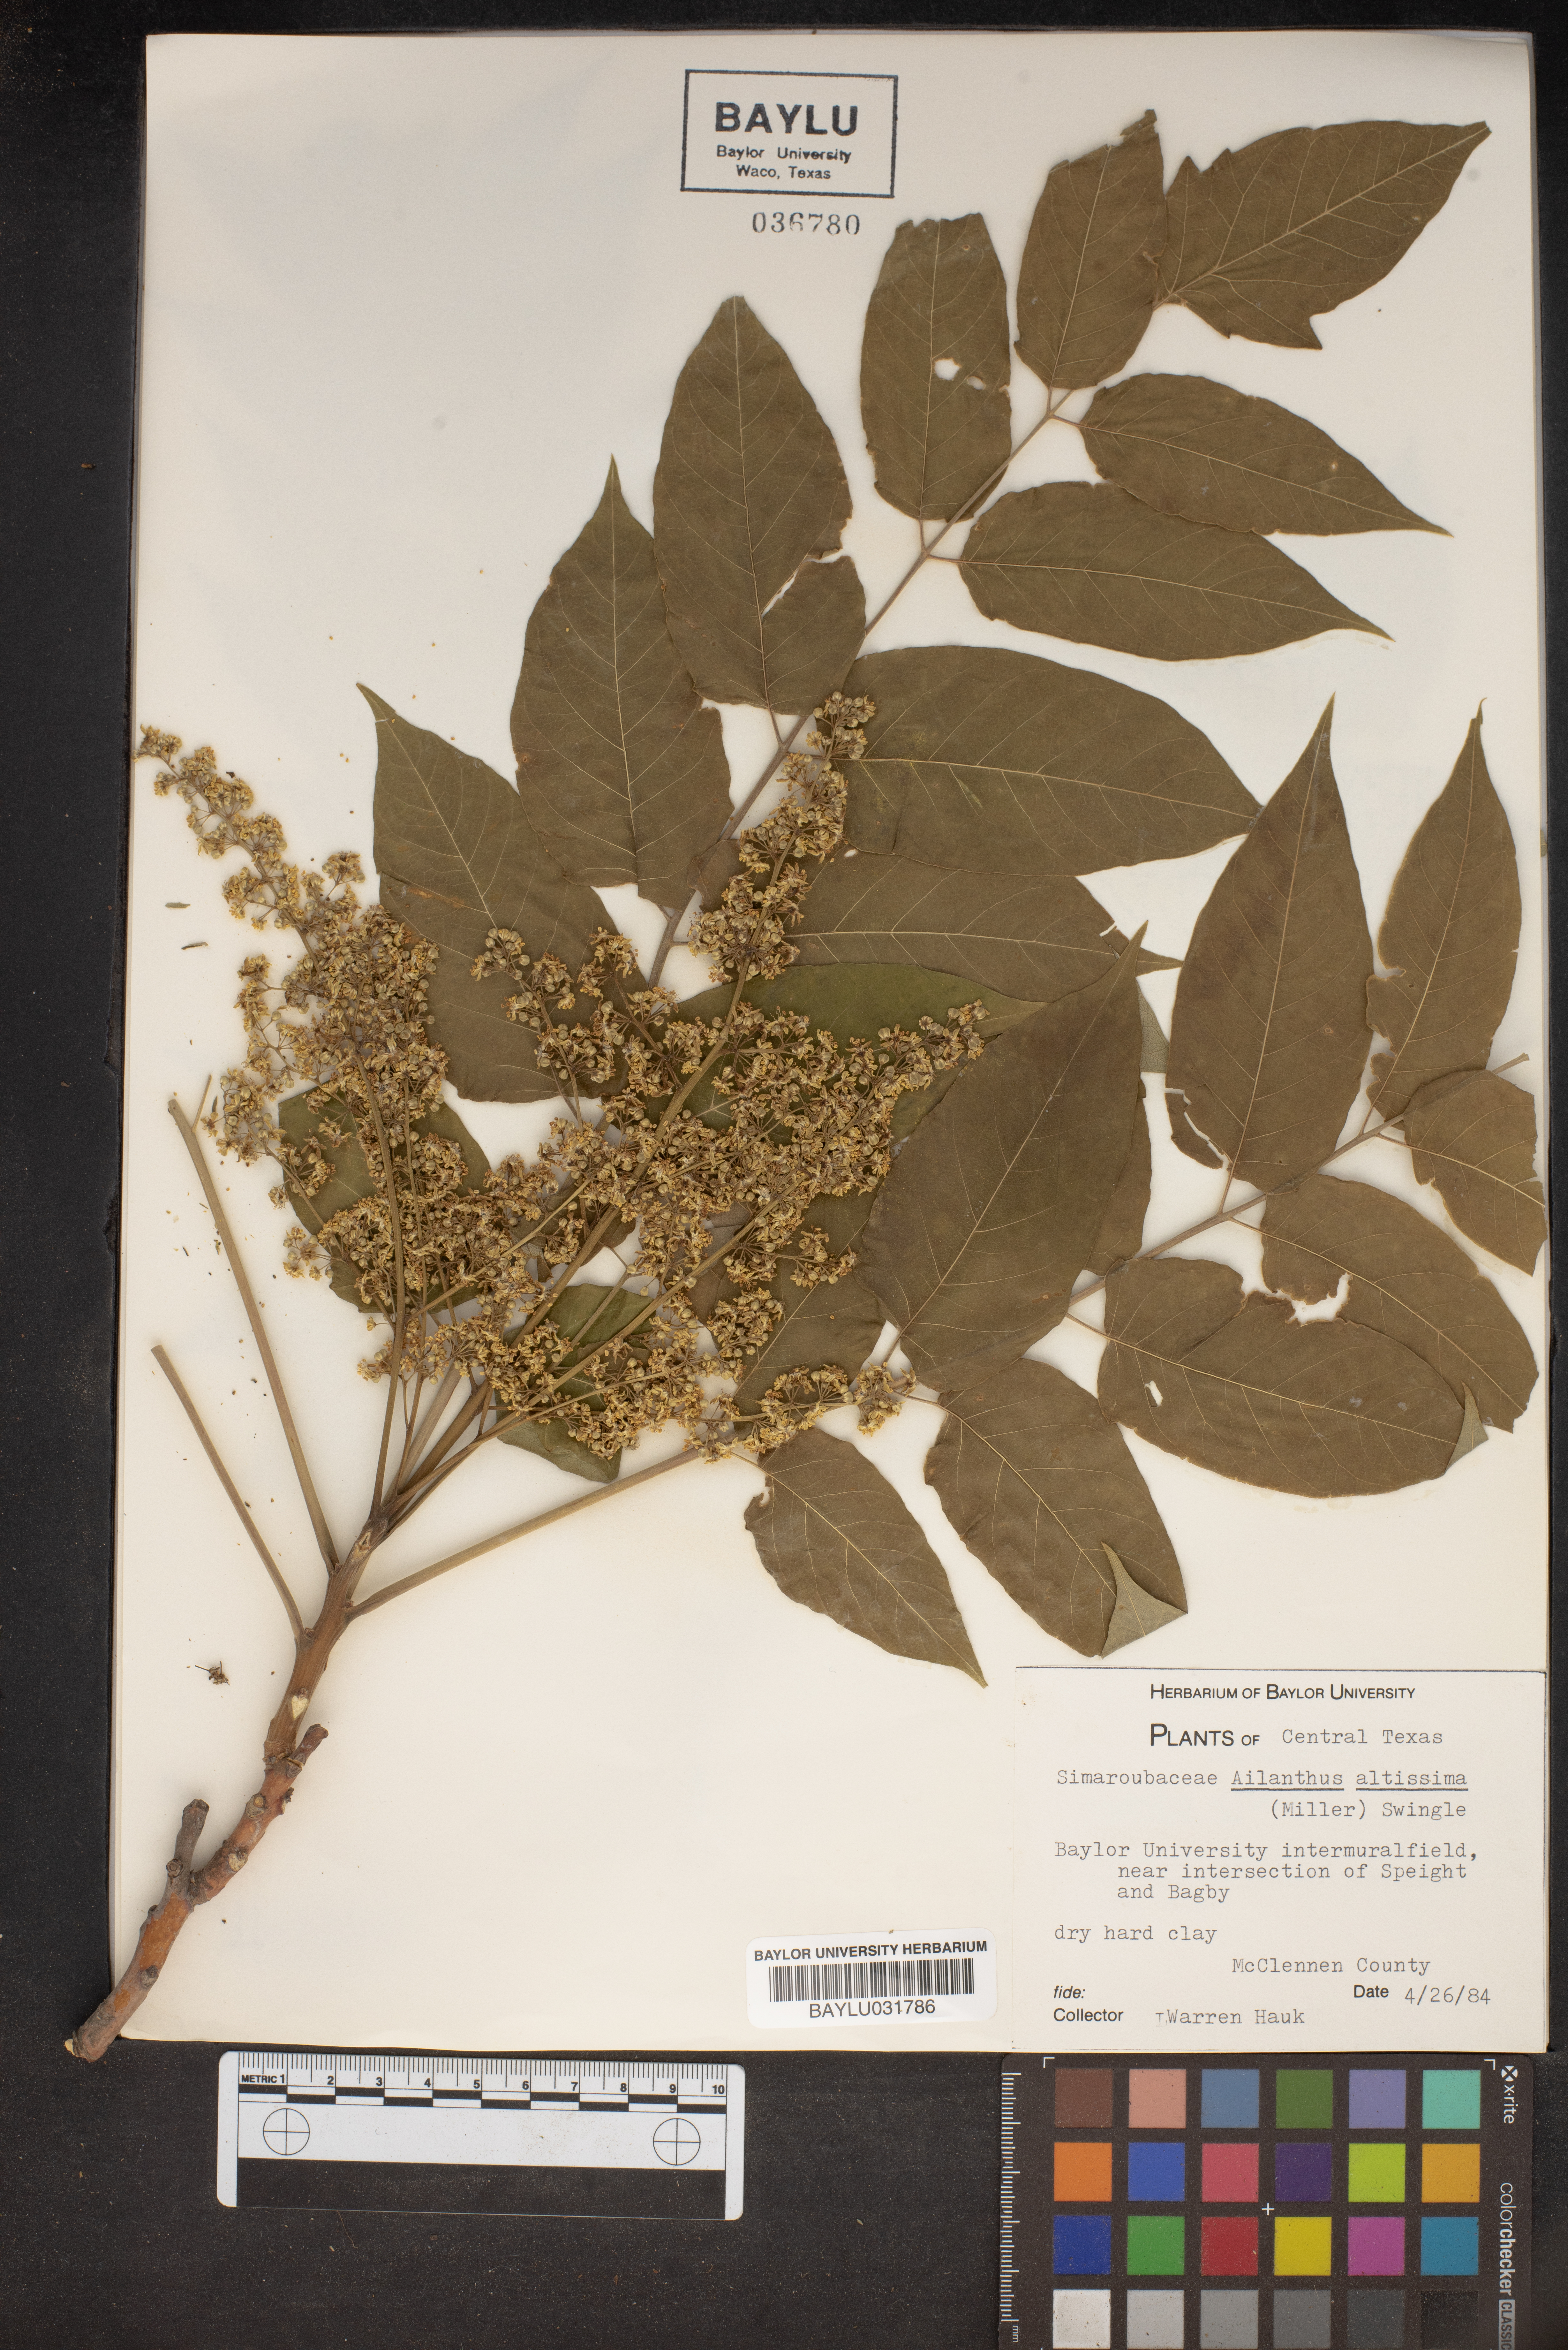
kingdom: Plantae
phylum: Tracheophyta
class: Magnoliopsida
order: Sapindales
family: Simaroubaceae
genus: Ailanthus
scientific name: Ailanthus altissima
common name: Tree-of-heaven
